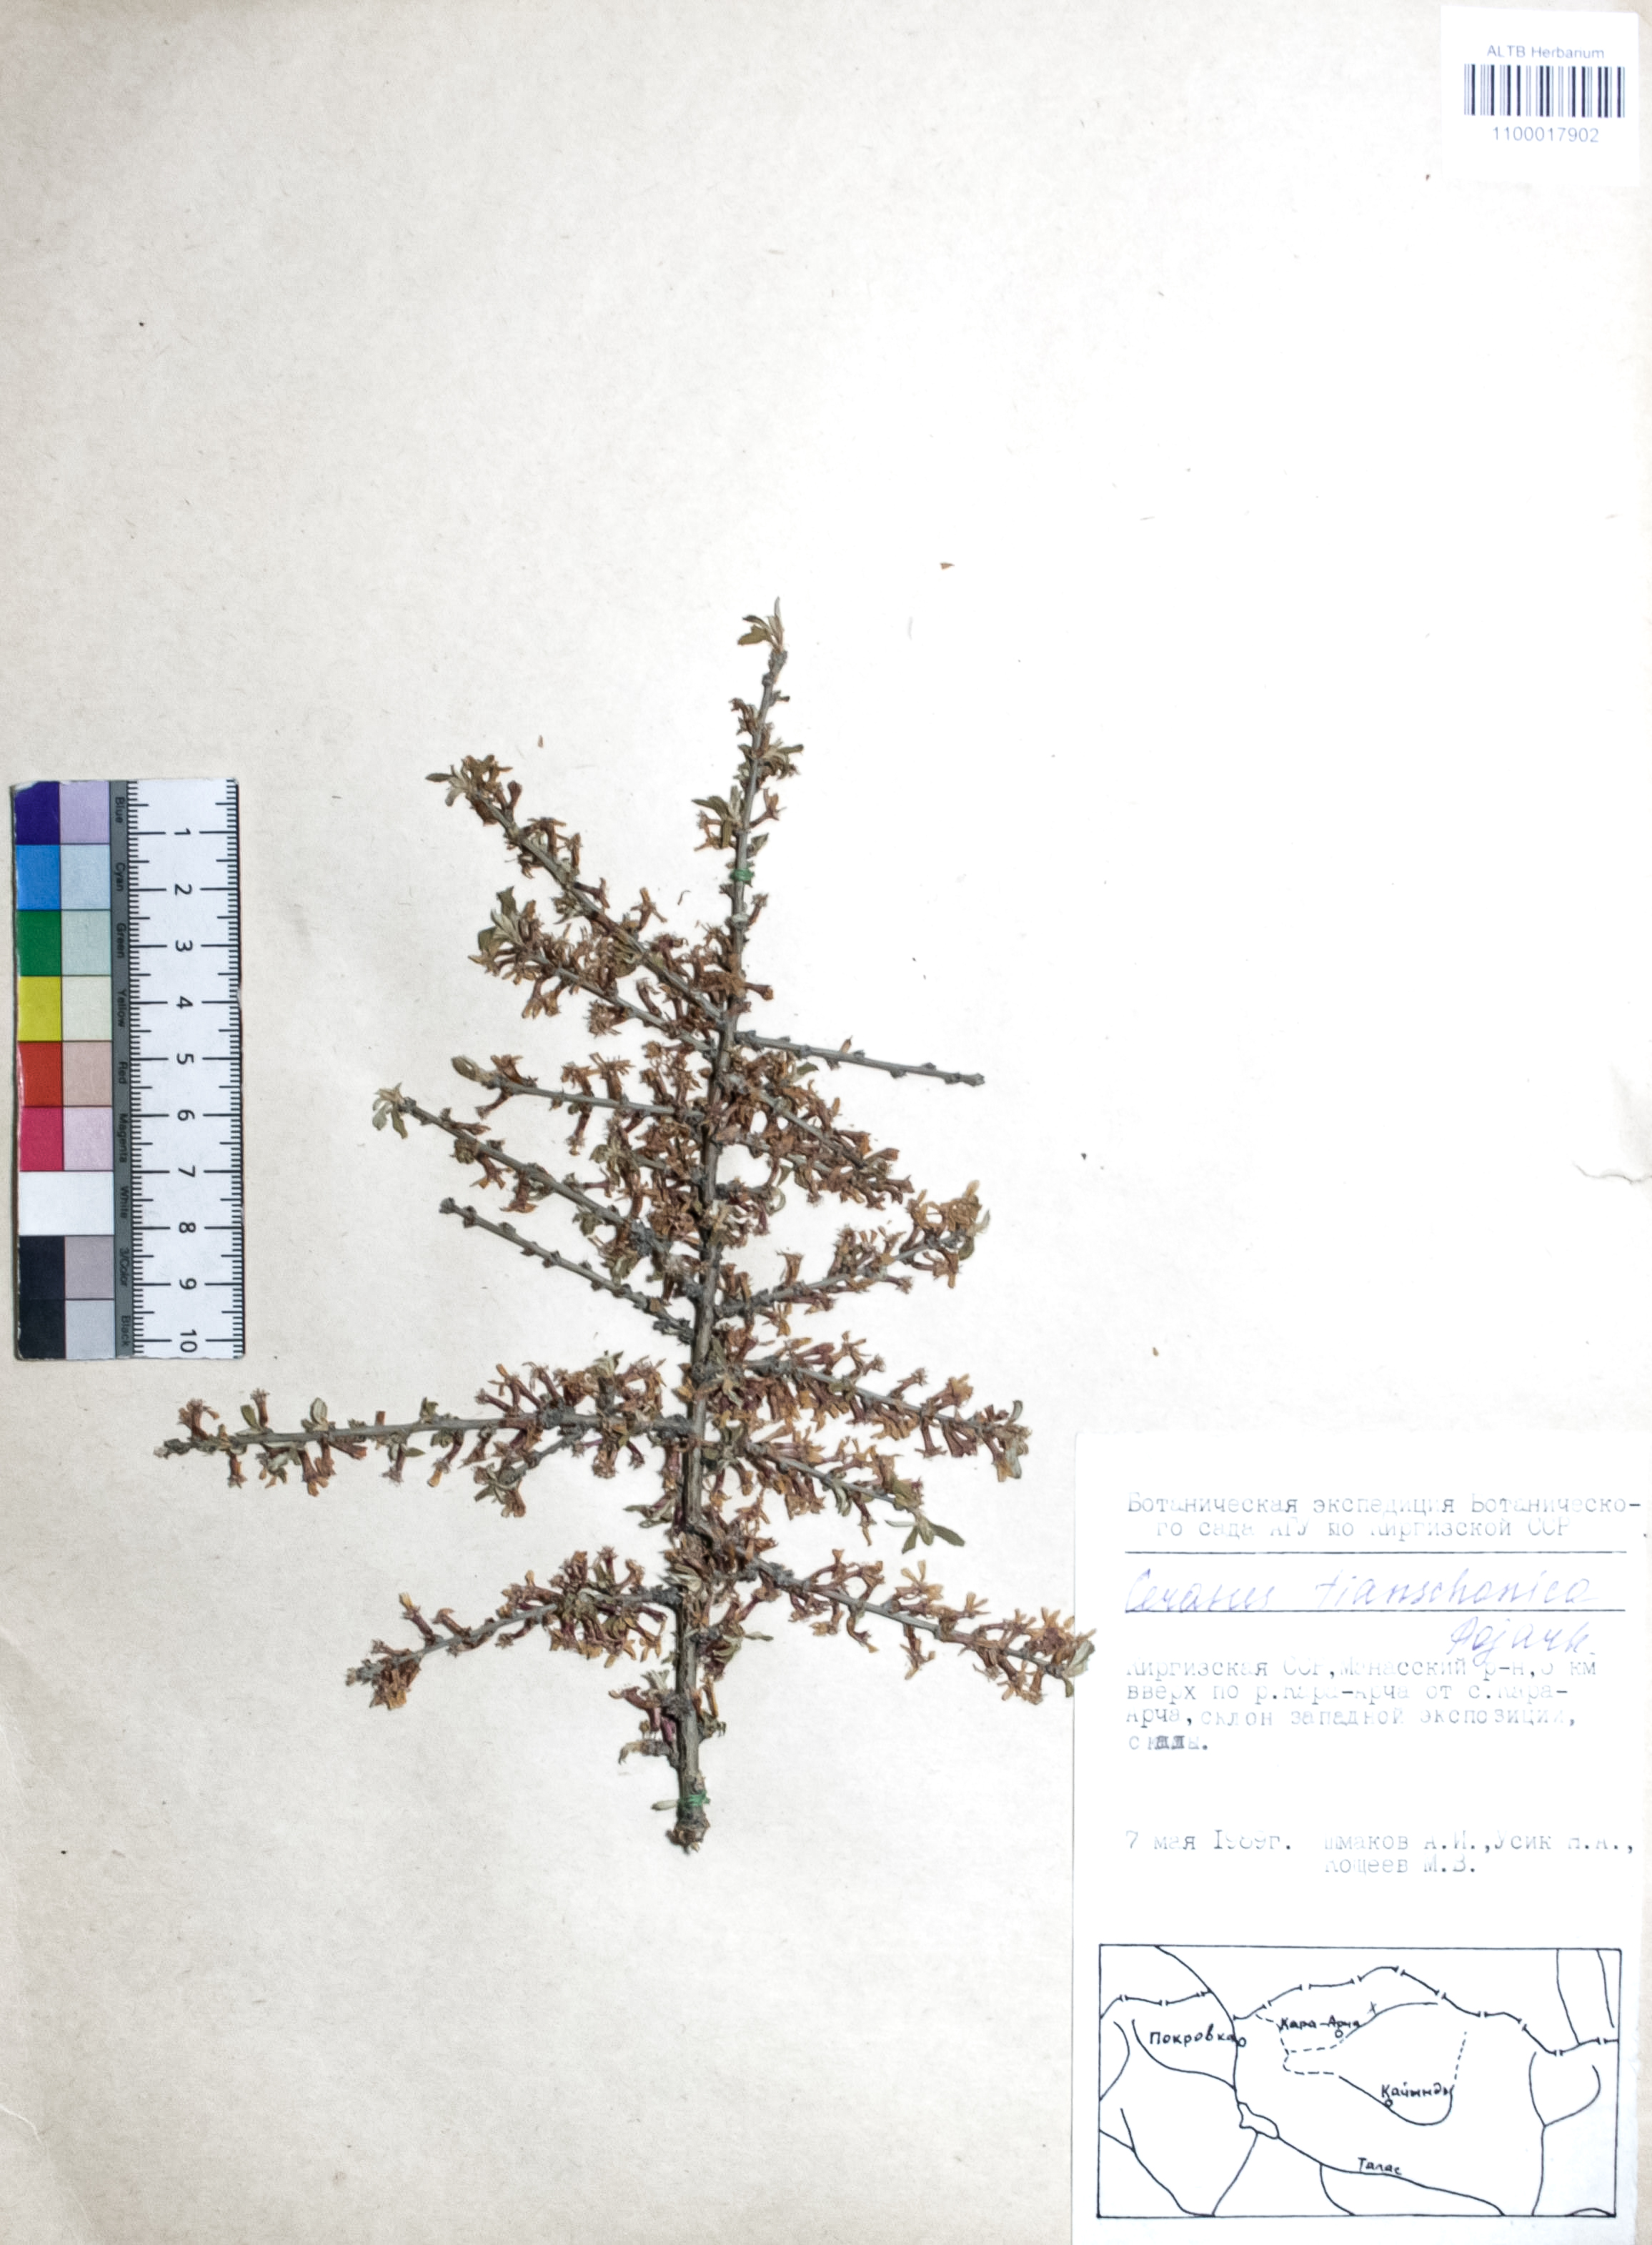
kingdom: Plantae
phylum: Tracheophyta
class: Magnoliopsida
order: Rosales
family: Rosaceae
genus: Prunus
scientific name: Prunus griffithii
